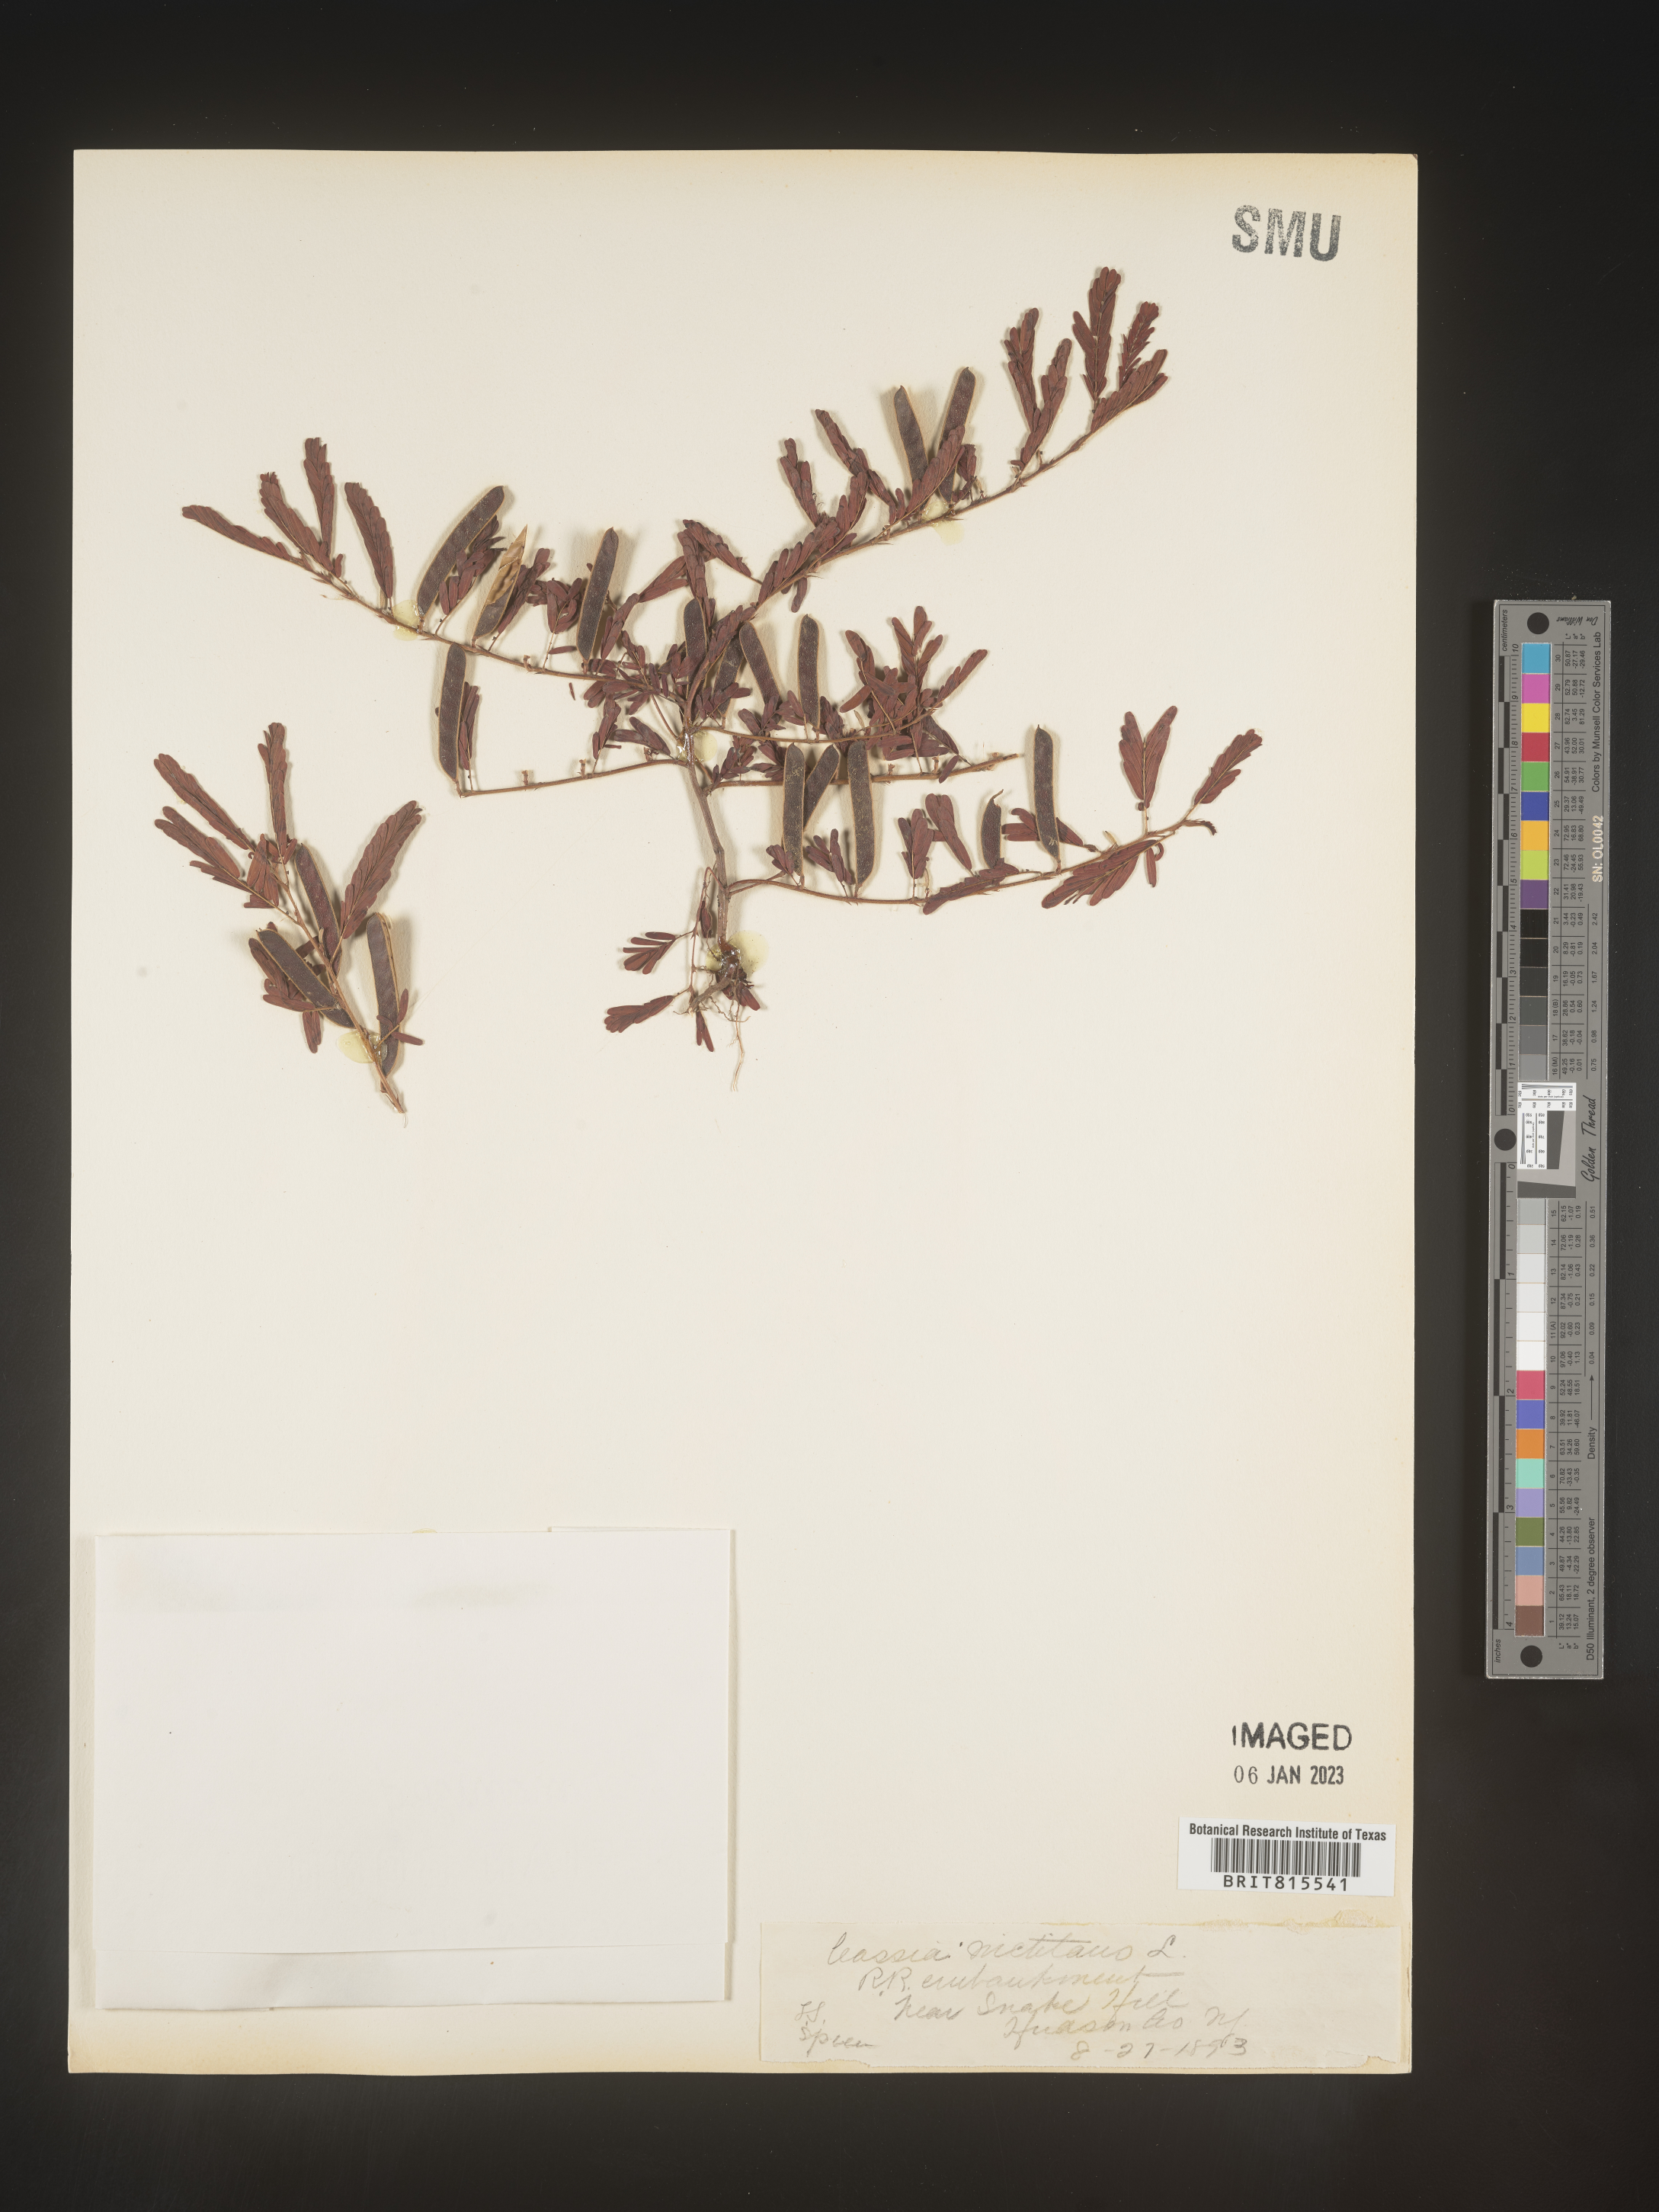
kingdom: Plantae
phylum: Tracheophyta
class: Magnoliopsida
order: Fabales
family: Fabaceae
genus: Chamaecrista
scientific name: Chamaecrista nictitans
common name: Sensitive cassia
